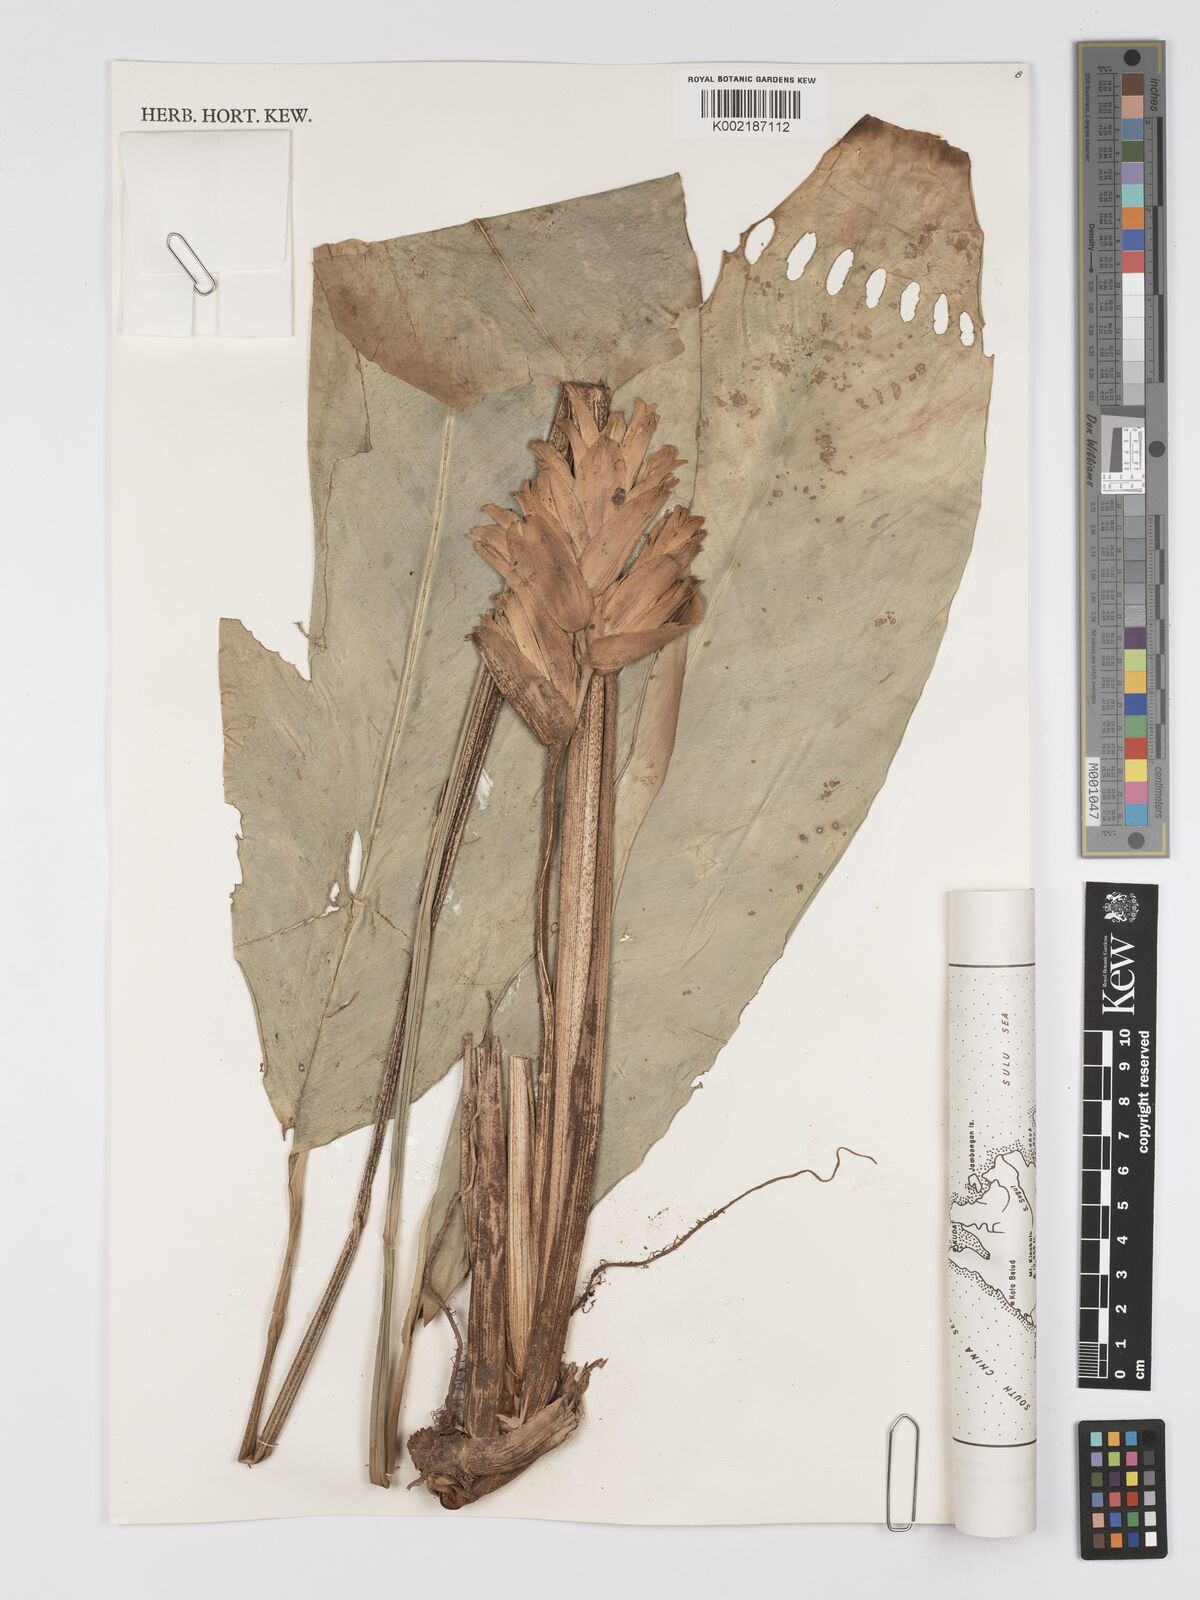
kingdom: Plantae
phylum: Tracheophyta
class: Liliopsida
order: Zingiberales
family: Marantaceae
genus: Phrynium
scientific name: Phrynium maximum
